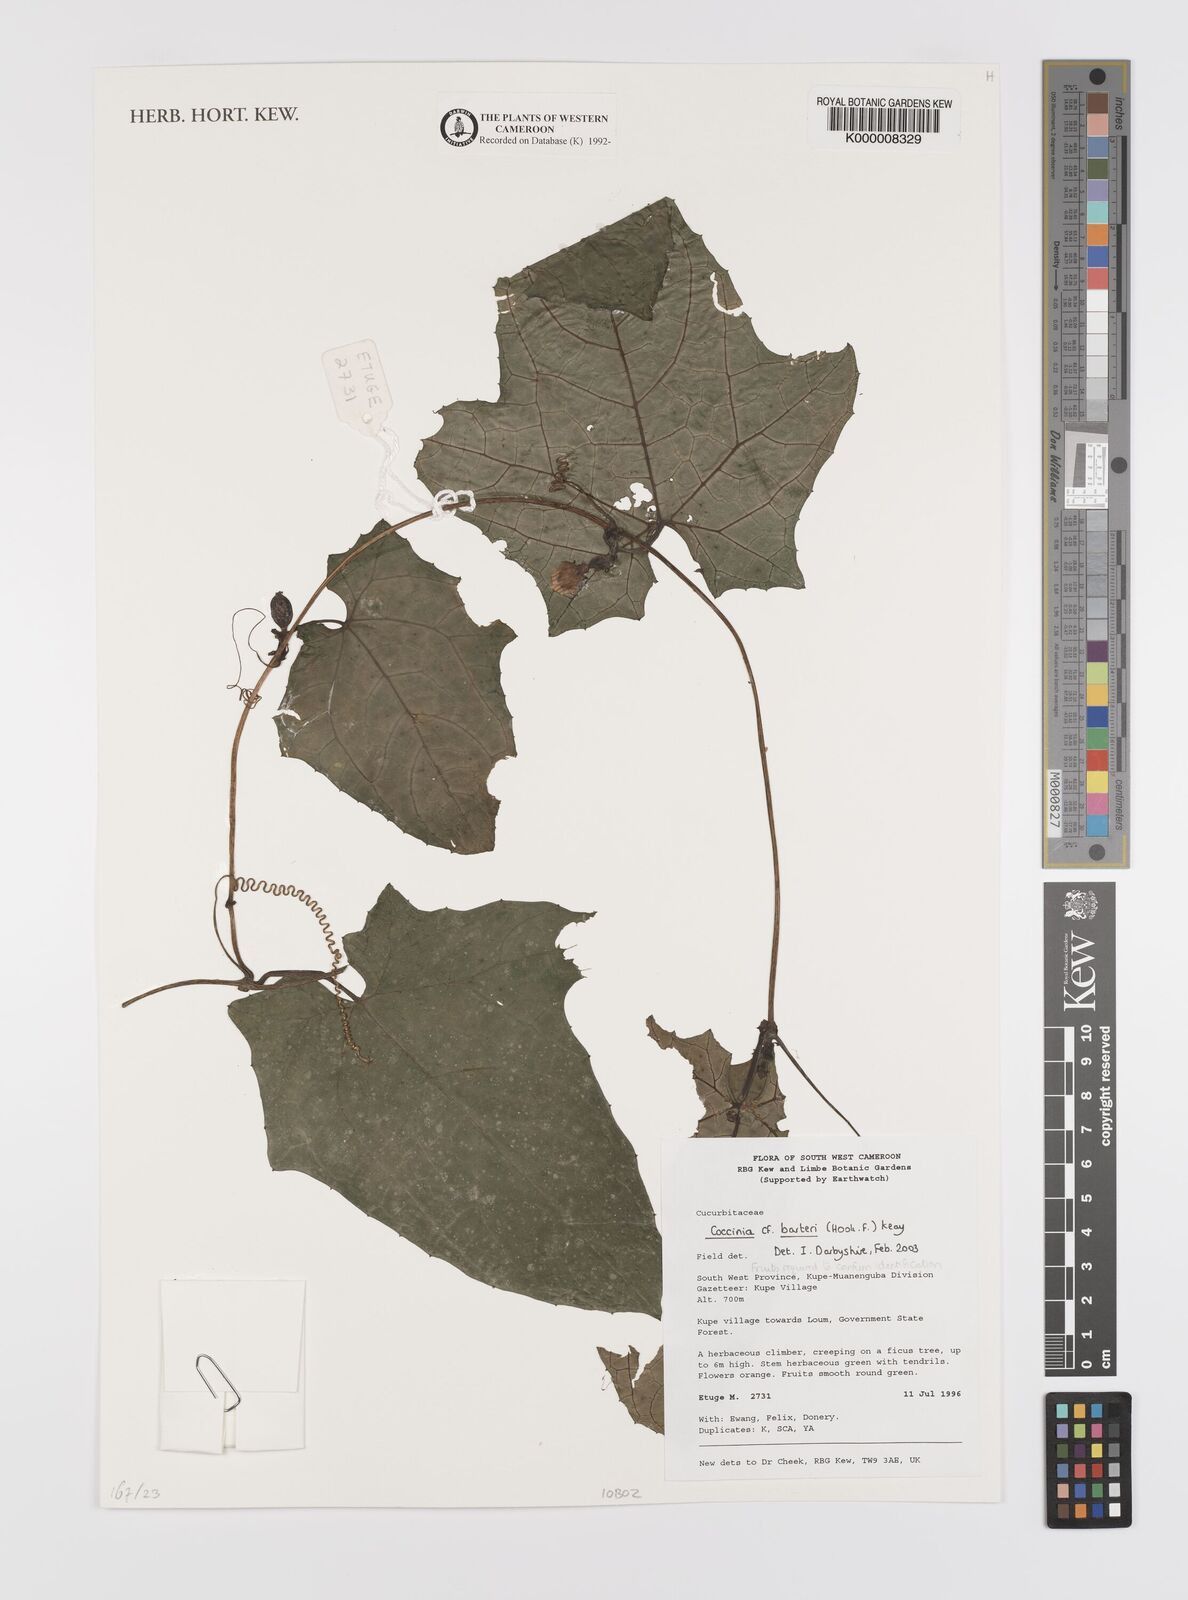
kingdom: Plantae
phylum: Tracheophyta
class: Magnoliopsida
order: Cucurbitales
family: Cucurbitaceae
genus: Coccinia
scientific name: Coccinia barteri
